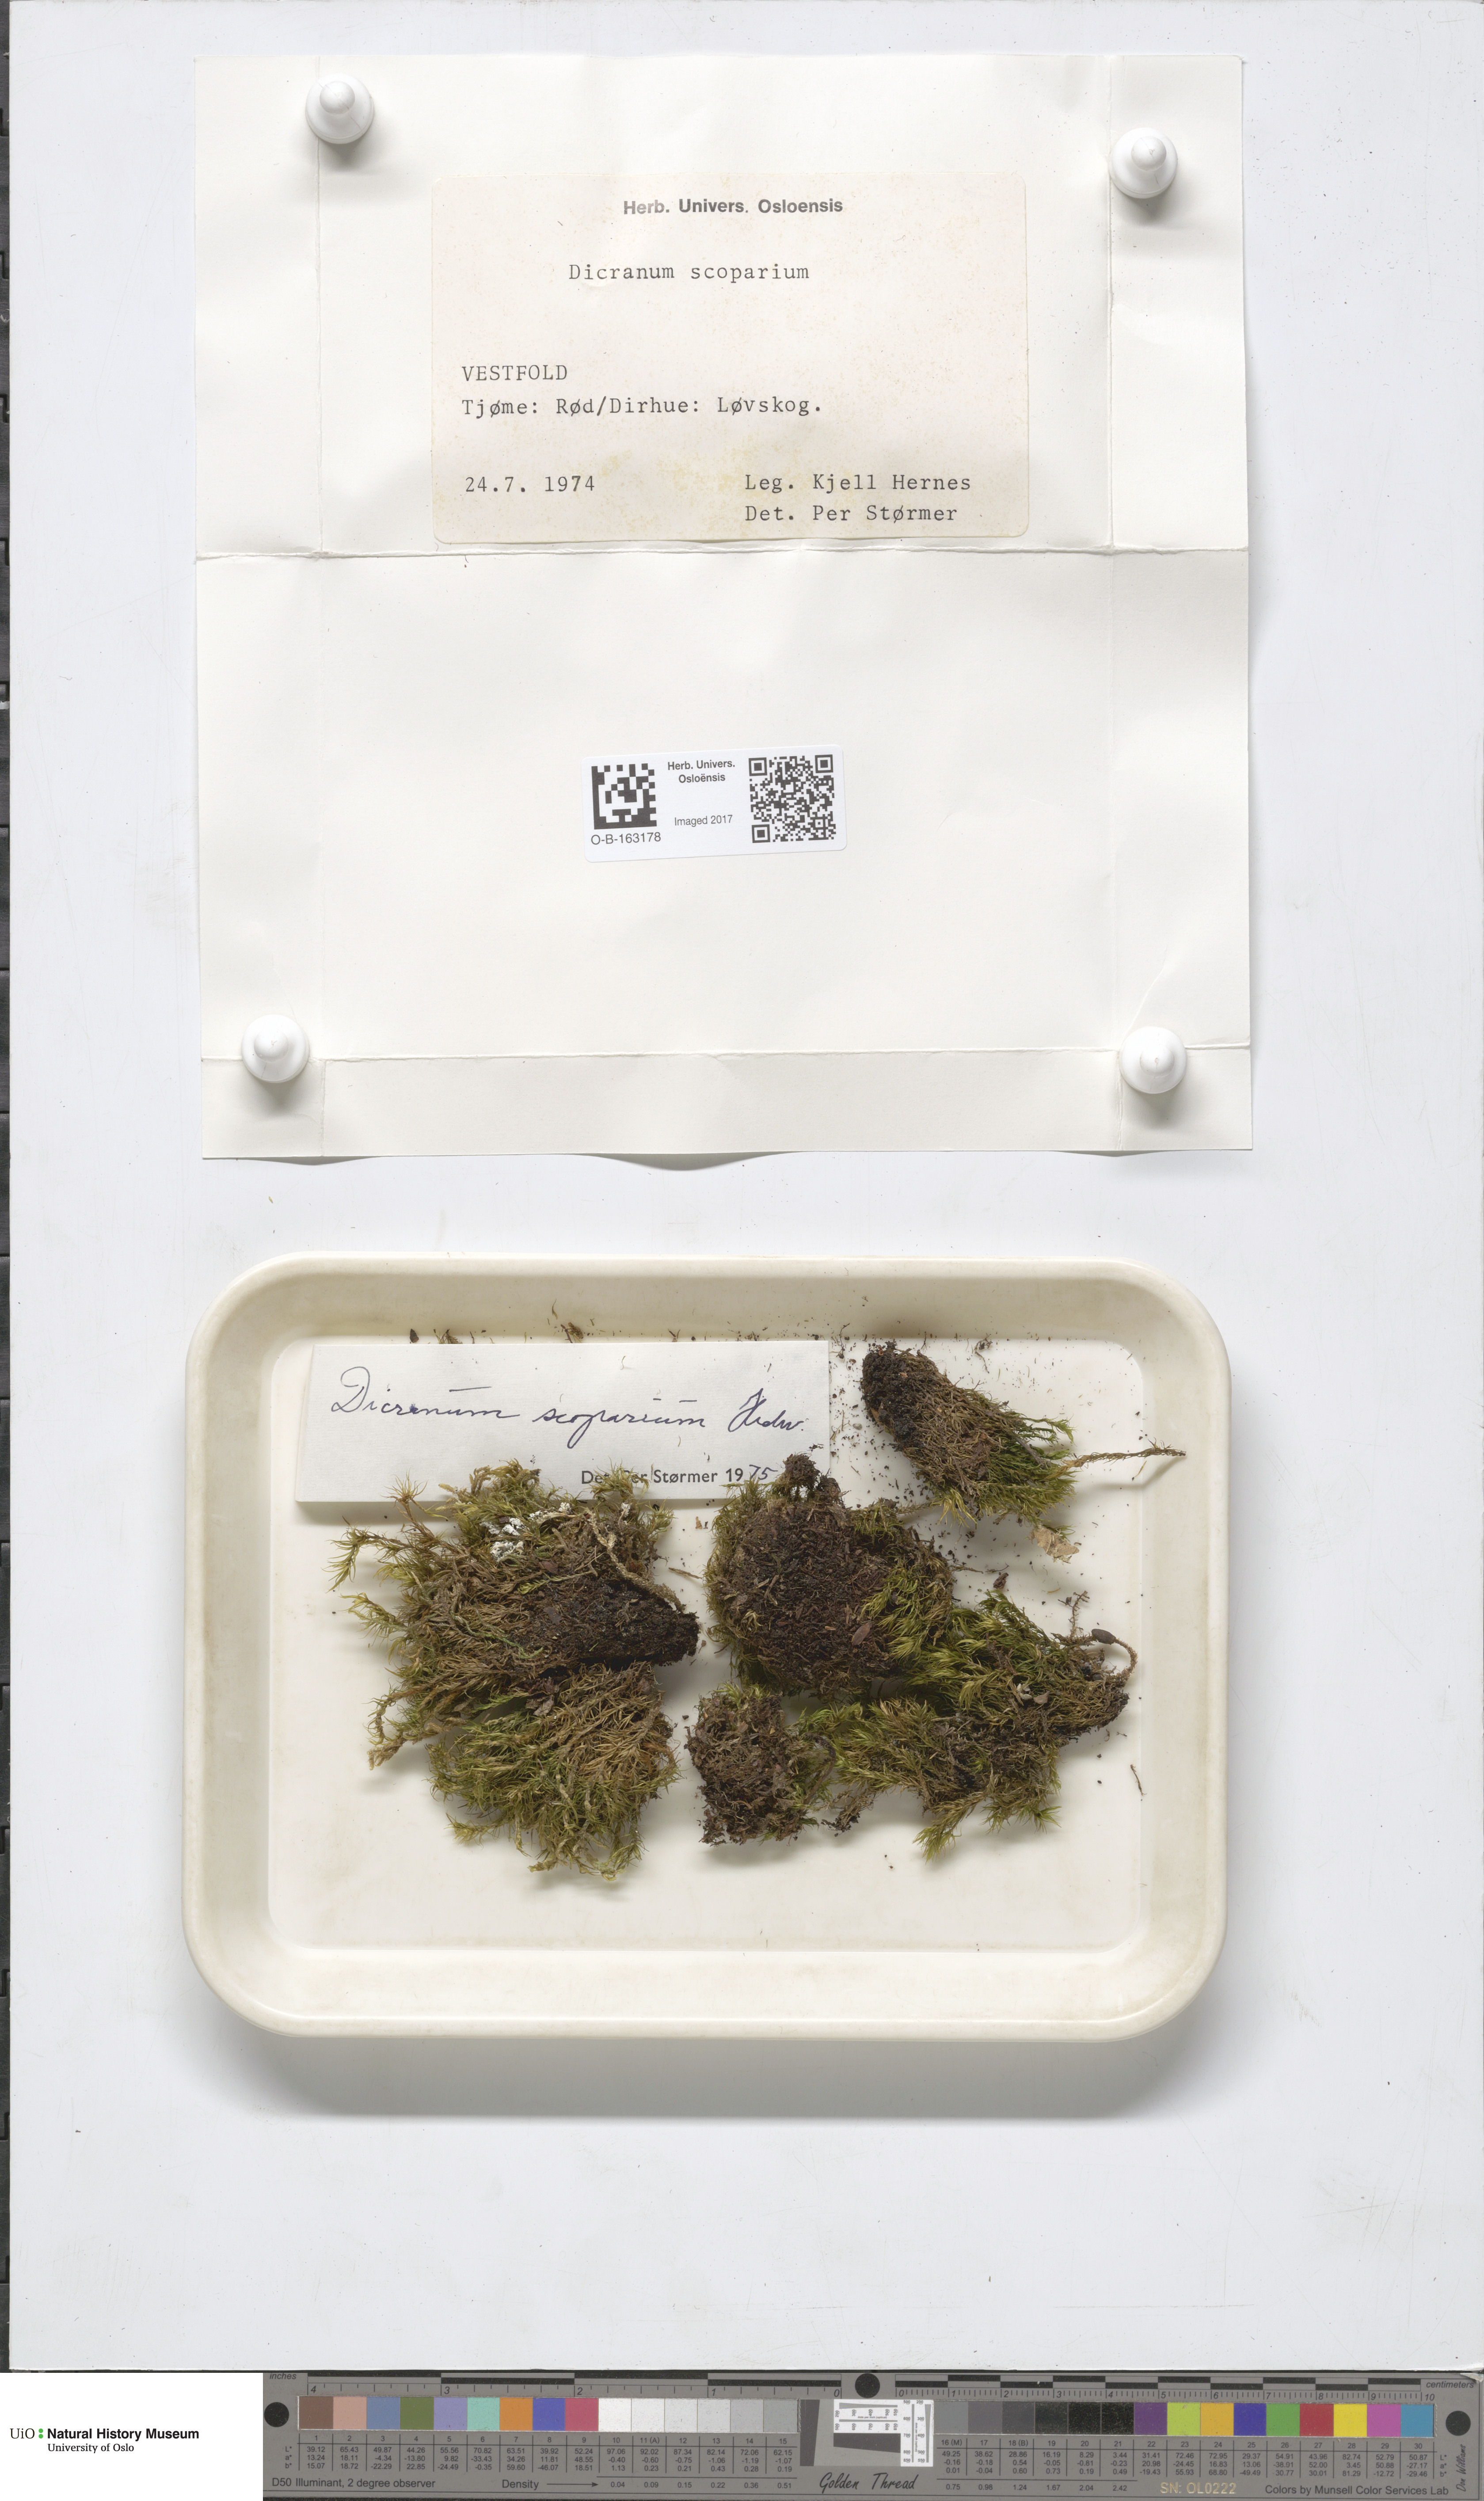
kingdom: Plantae
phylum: Bryophyta
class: Bryopsida
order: Dicranales
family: Dicranaceae
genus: Dicranum
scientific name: Dicranum scoparium
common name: Broom fork-moss
